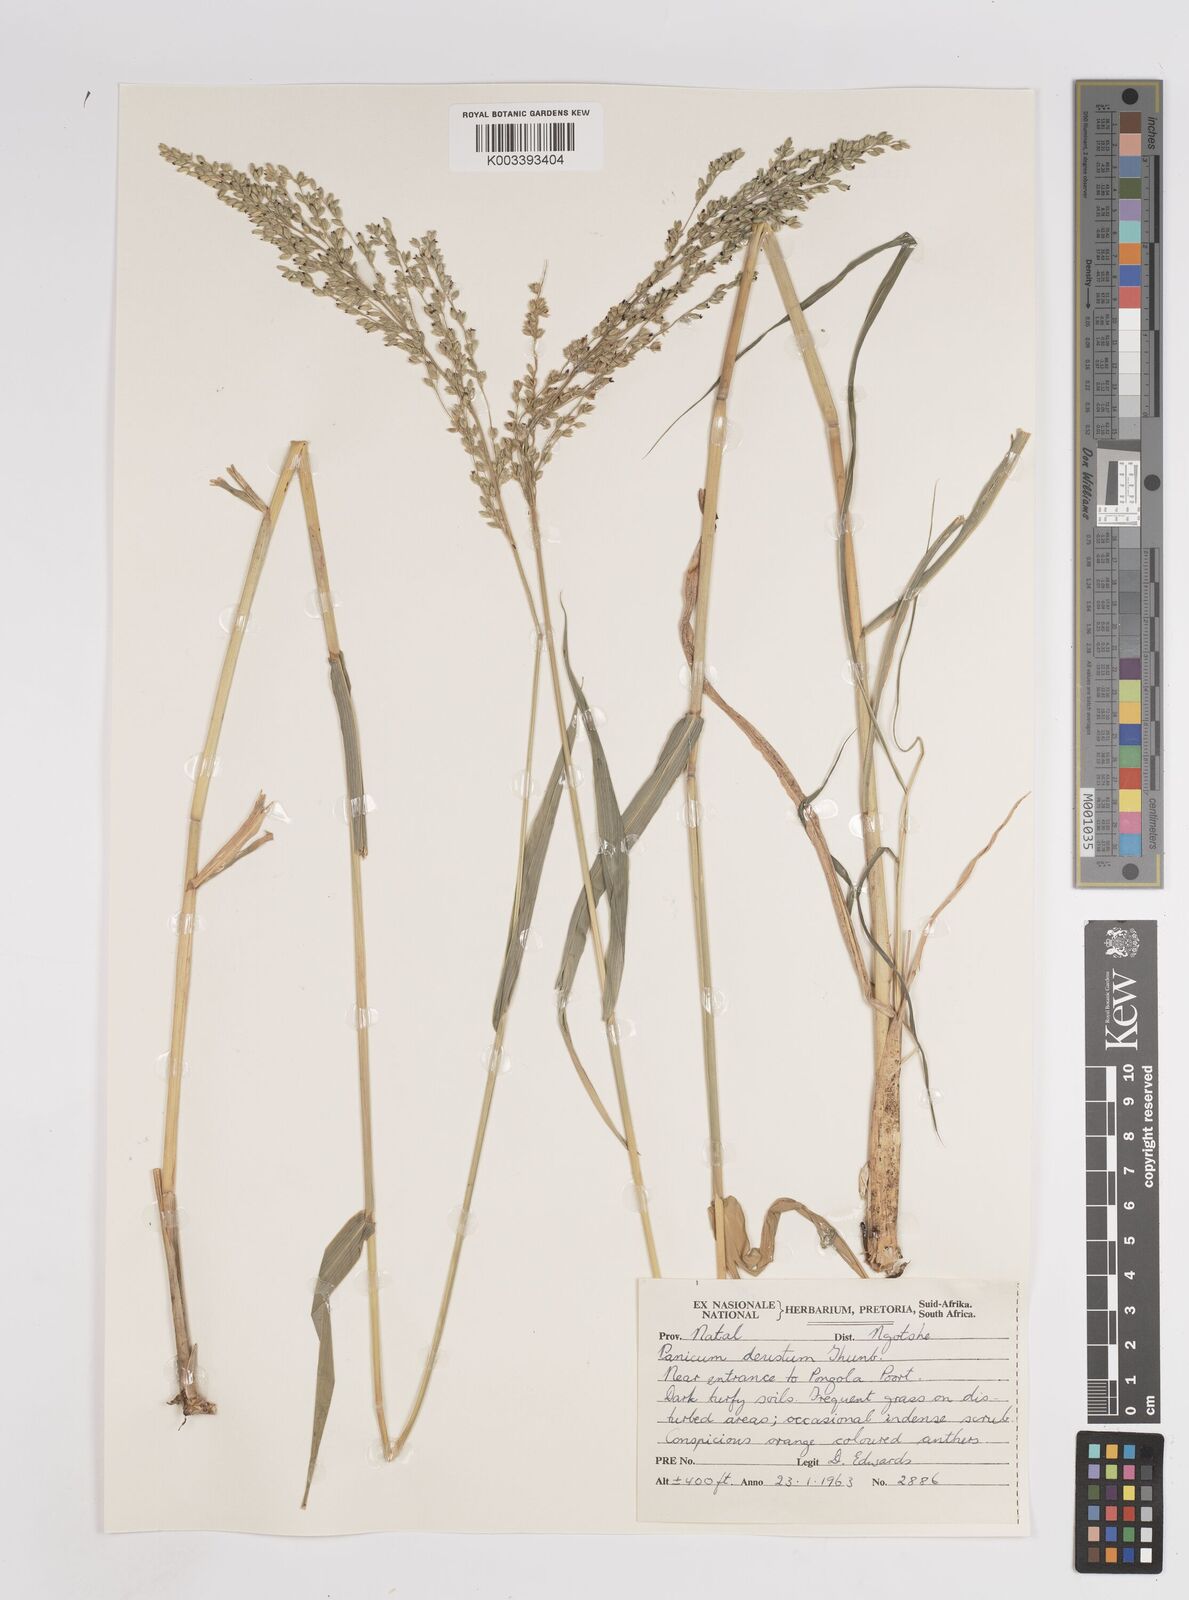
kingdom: Plantae
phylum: Tracheophyta
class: Liliopsida
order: Poales
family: Poaceae
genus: Panicum
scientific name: Panicum deustum
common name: Reed panicum
